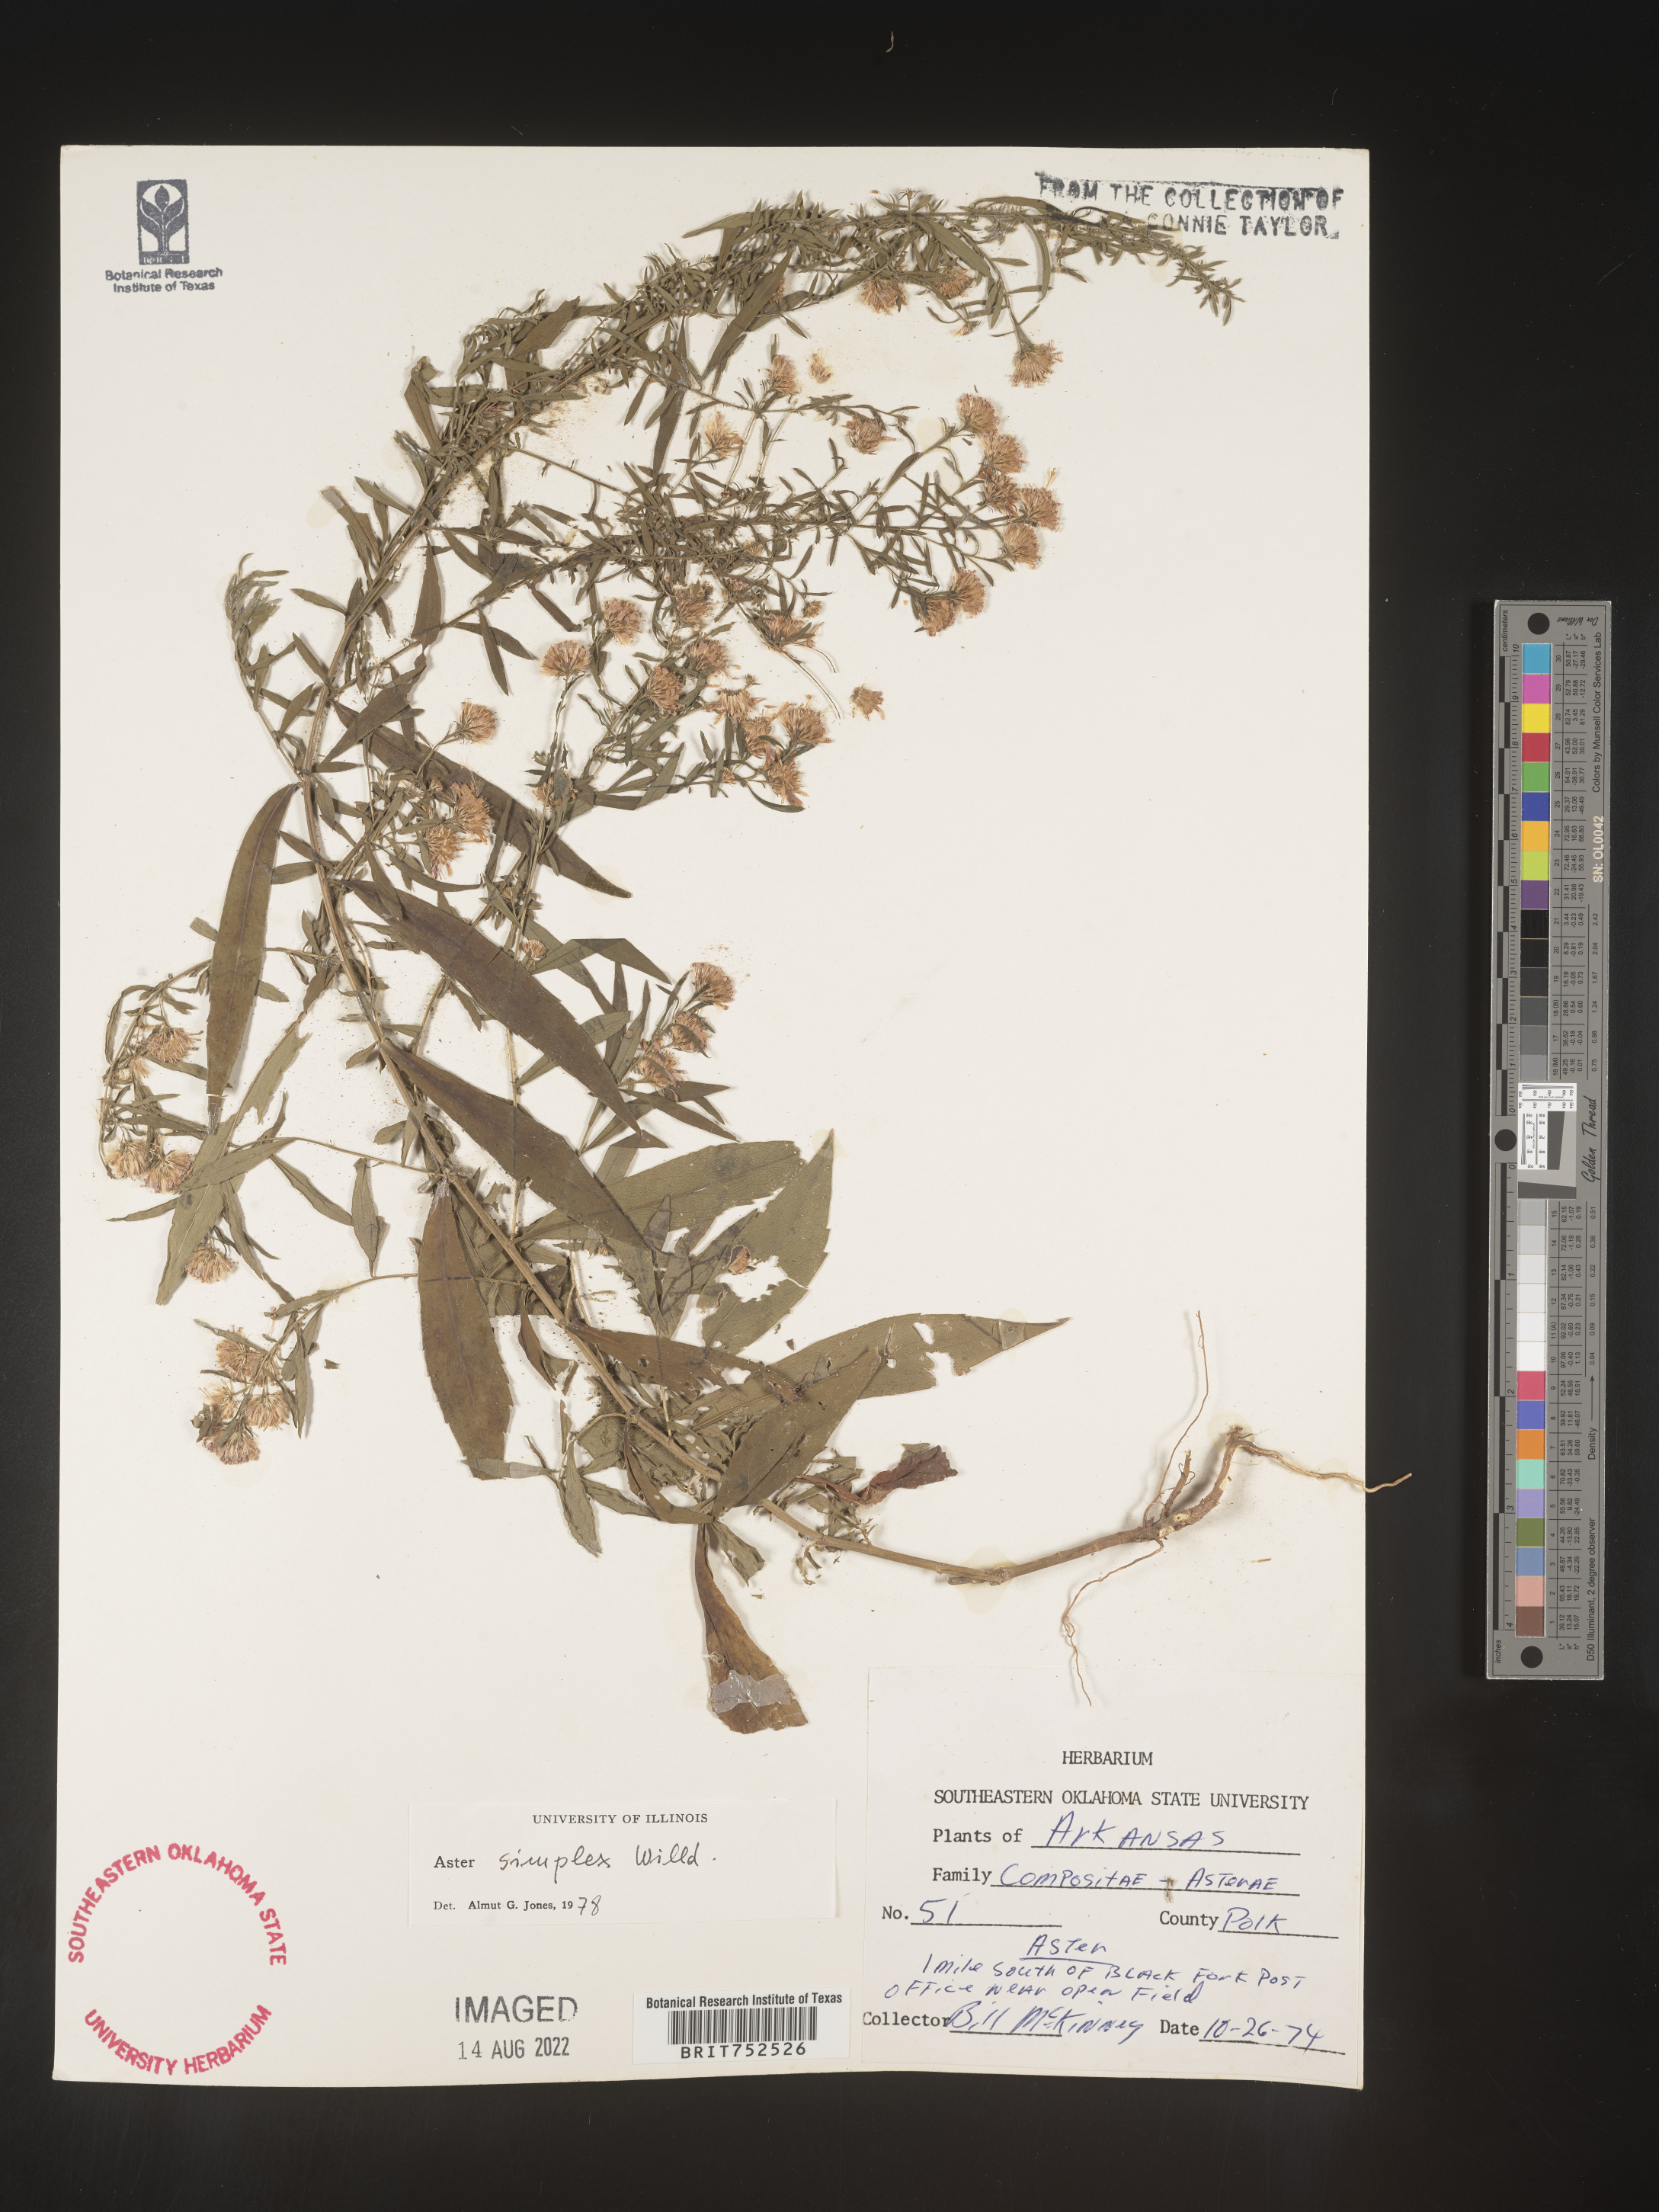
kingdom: Plantae
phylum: Tracheophyta
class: Magnoliopsida
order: Asterales
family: Asteraceae
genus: Symphyotrichum
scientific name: Symphyotrichum lanceolatum
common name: Panicled aster
